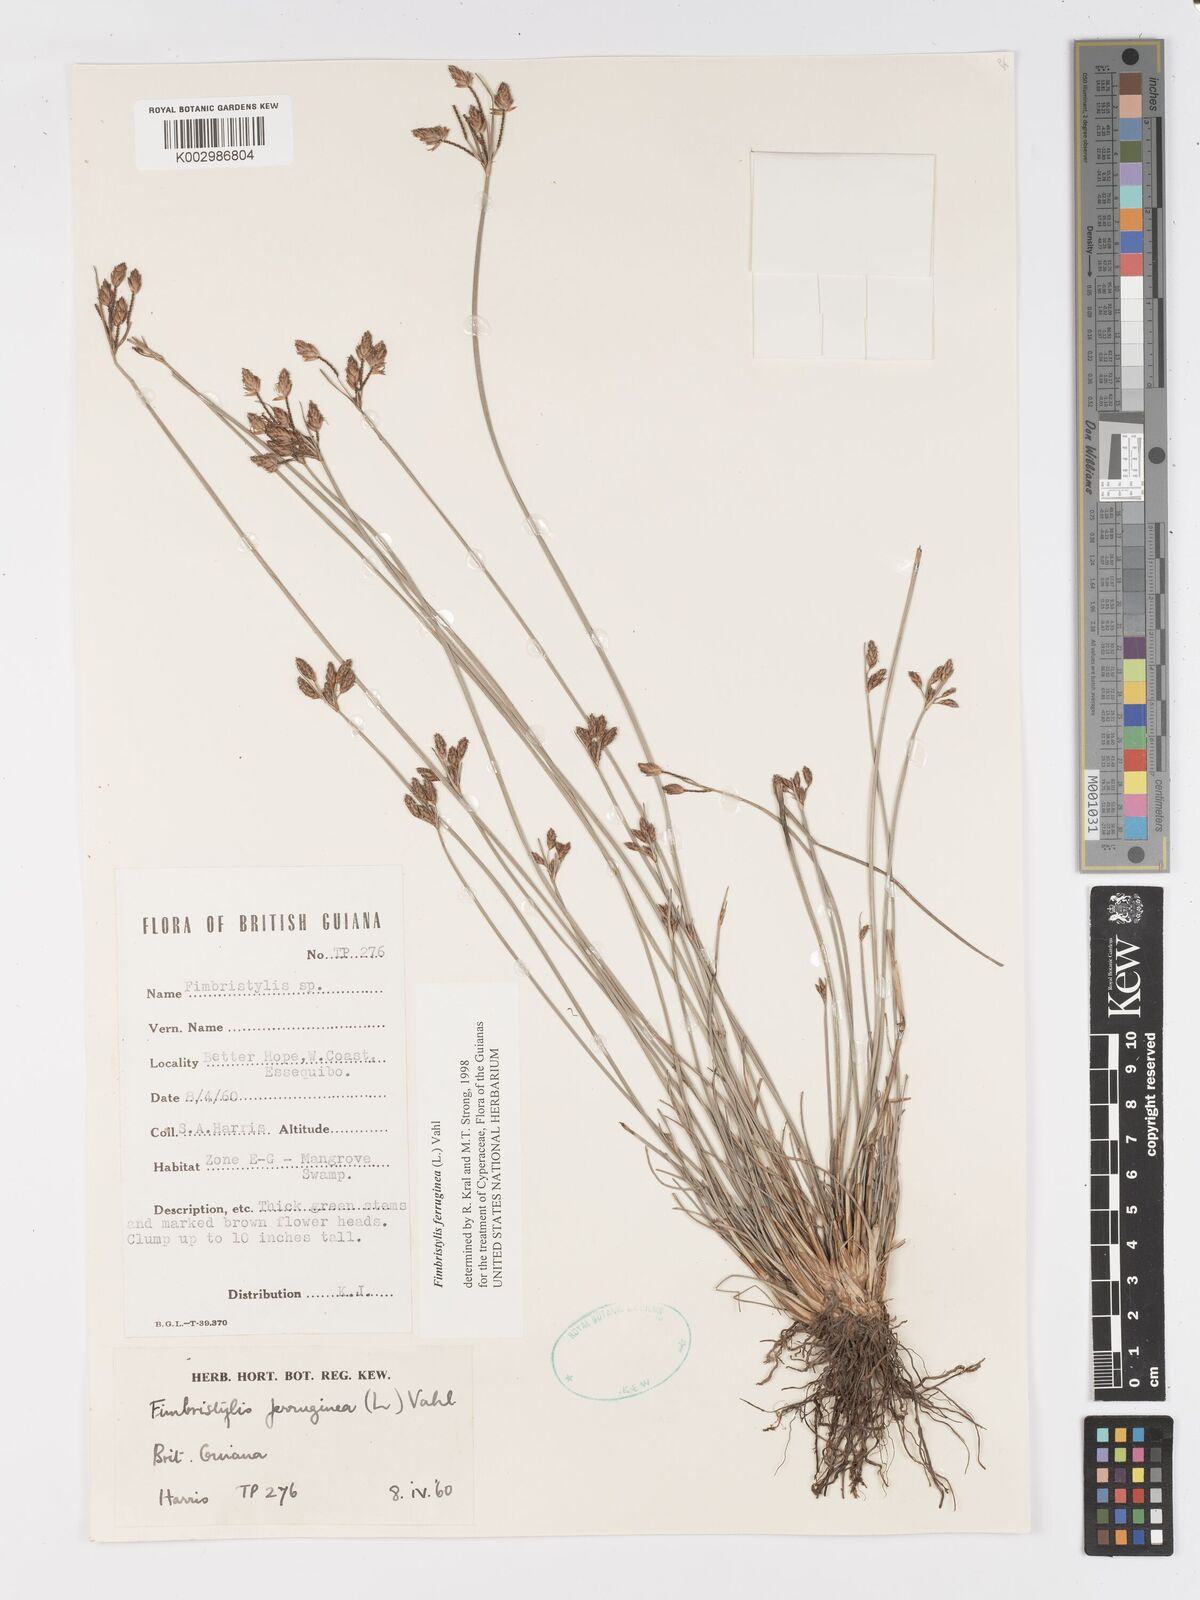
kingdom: Plantae
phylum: Tracheophyta
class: Liliopsida
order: Poales
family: Cyperaceae
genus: Fimbristylis
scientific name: Fimbristylis ferruginea
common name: West indian fimbry
